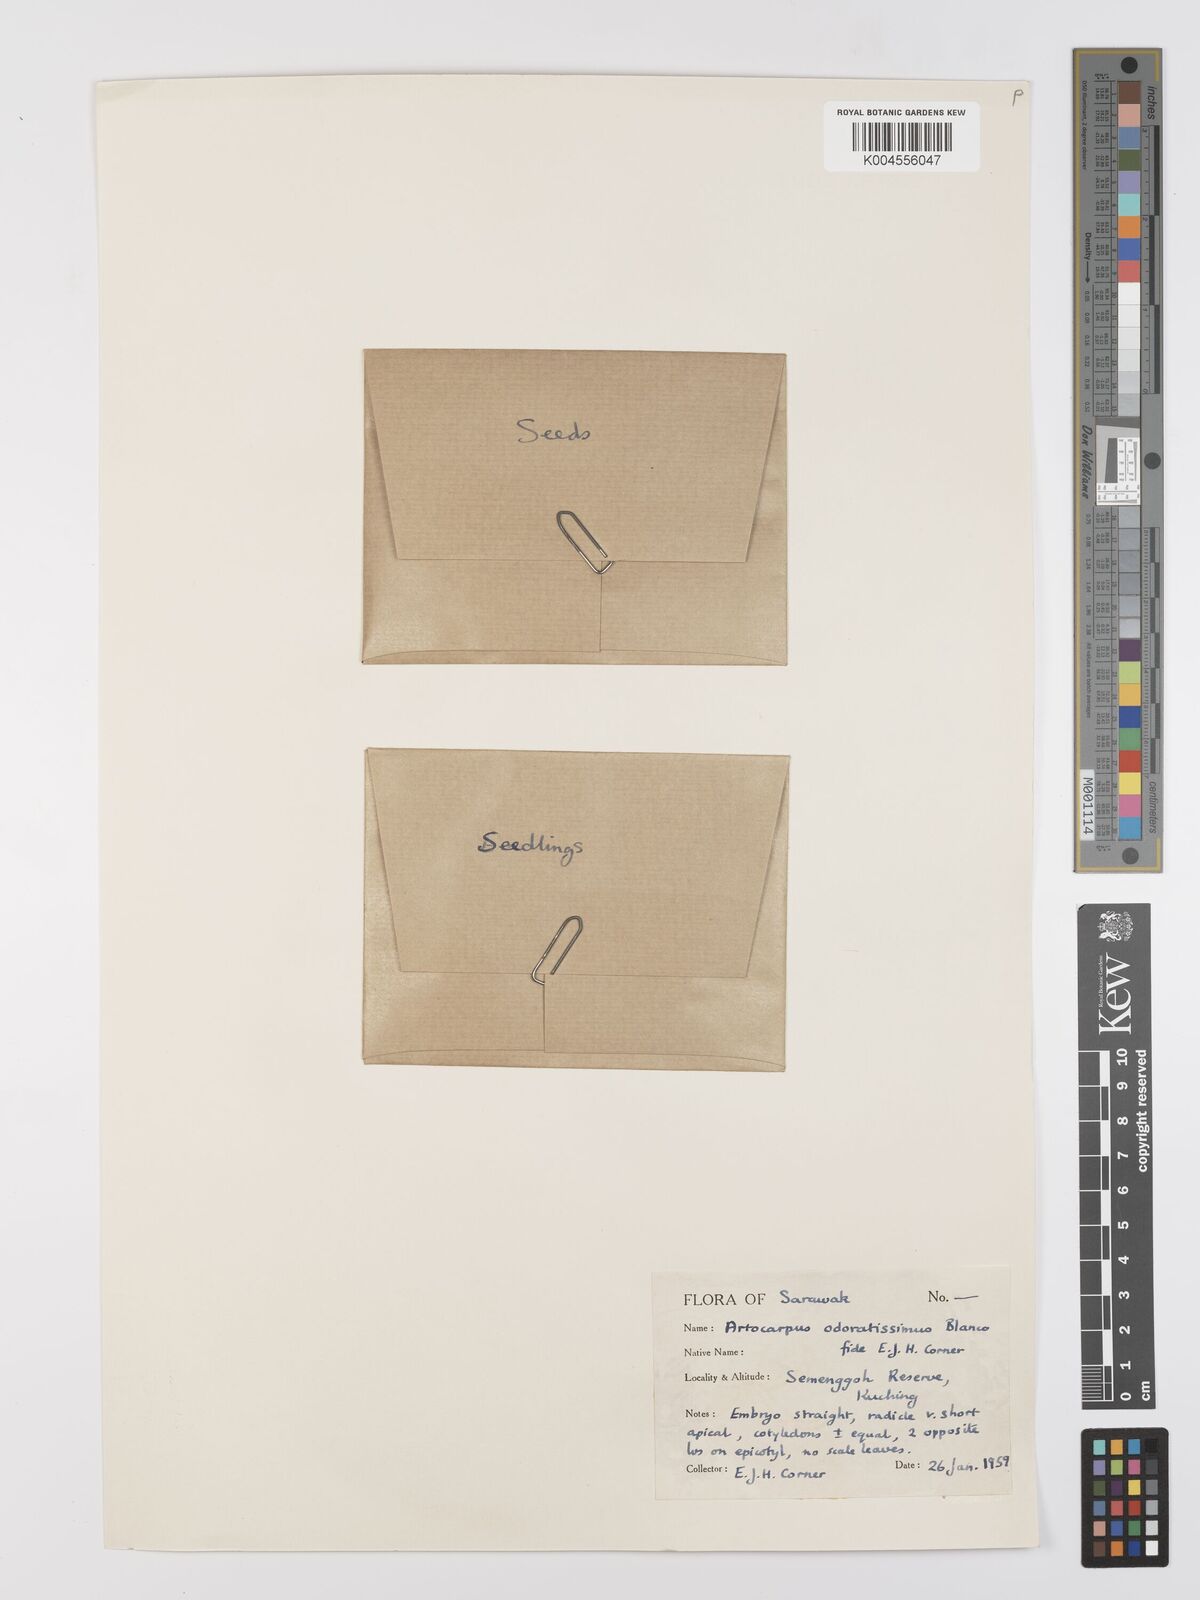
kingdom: Plantae
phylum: Tracheophyta
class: Magnoliopsida
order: Rosales
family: Moraceae
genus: Artocarpus
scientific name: Artocarpus odoratissimus
